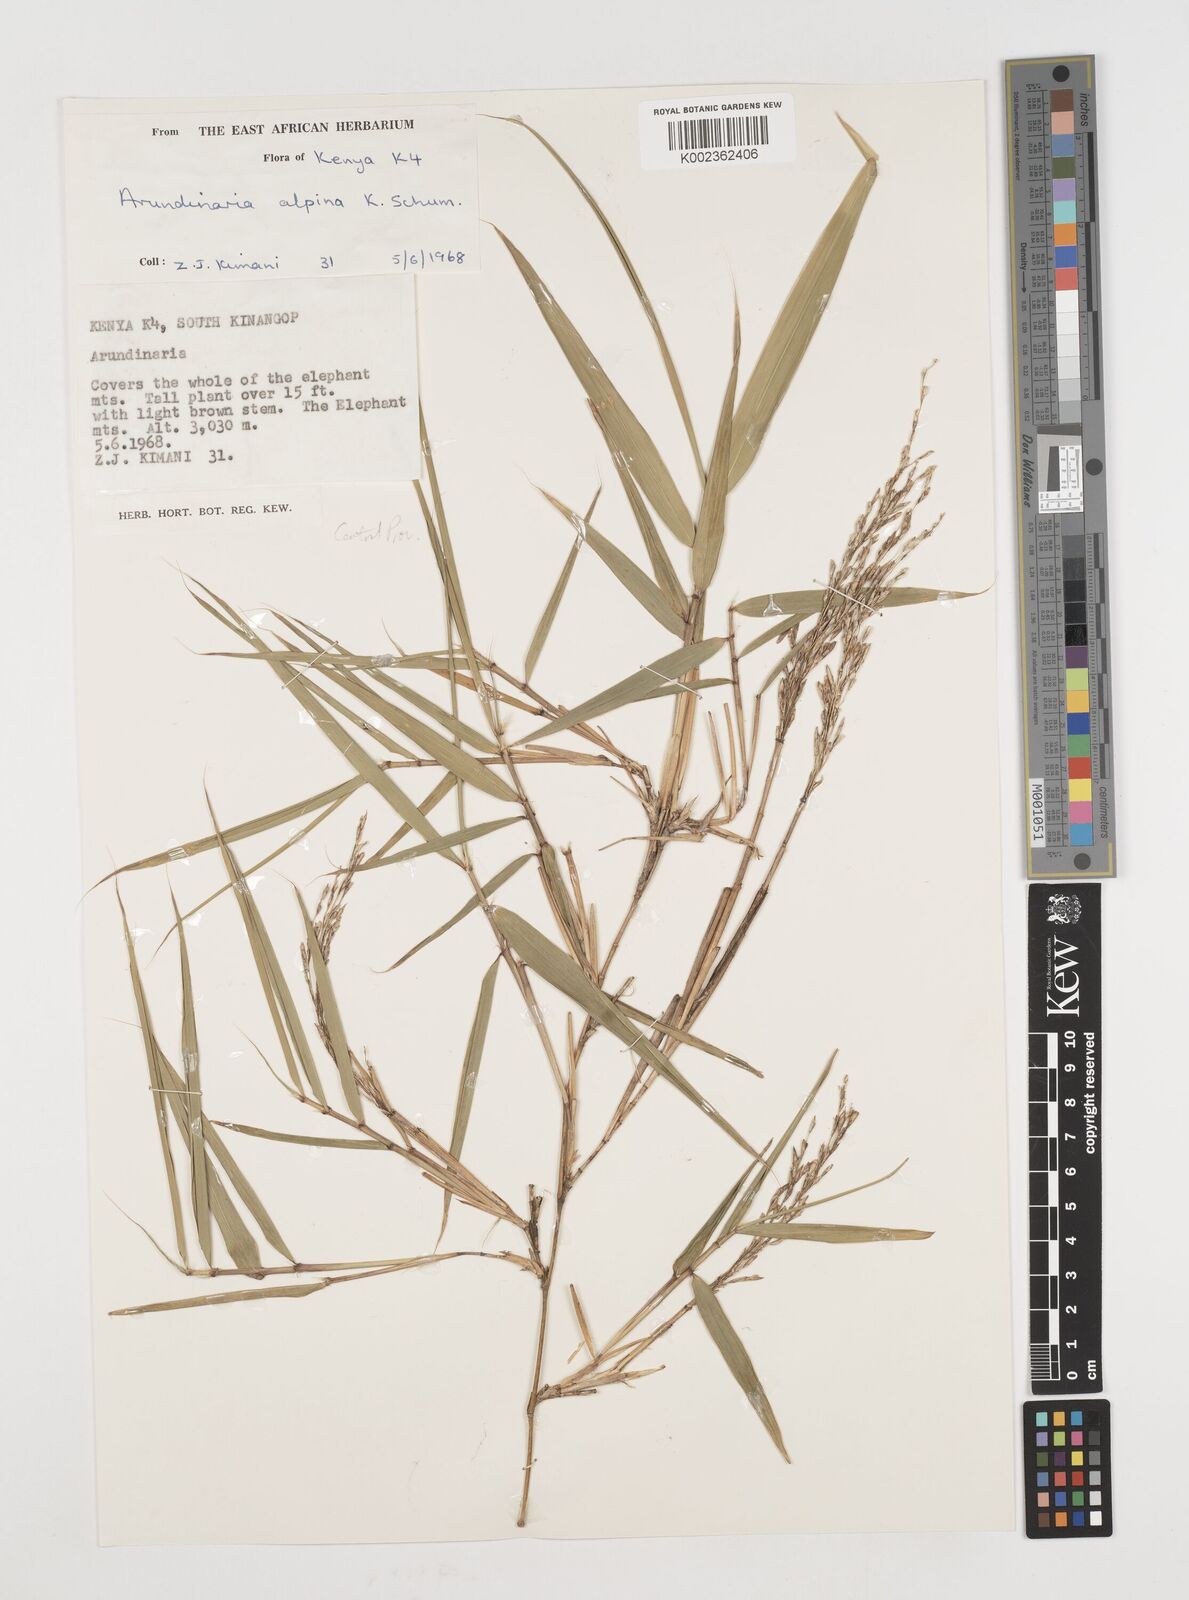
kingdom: Plantae
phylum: Tracheophyta
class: Liliopsida
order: Poales
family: Poaceae
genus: Oldeania
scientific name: Oldeania alpina
